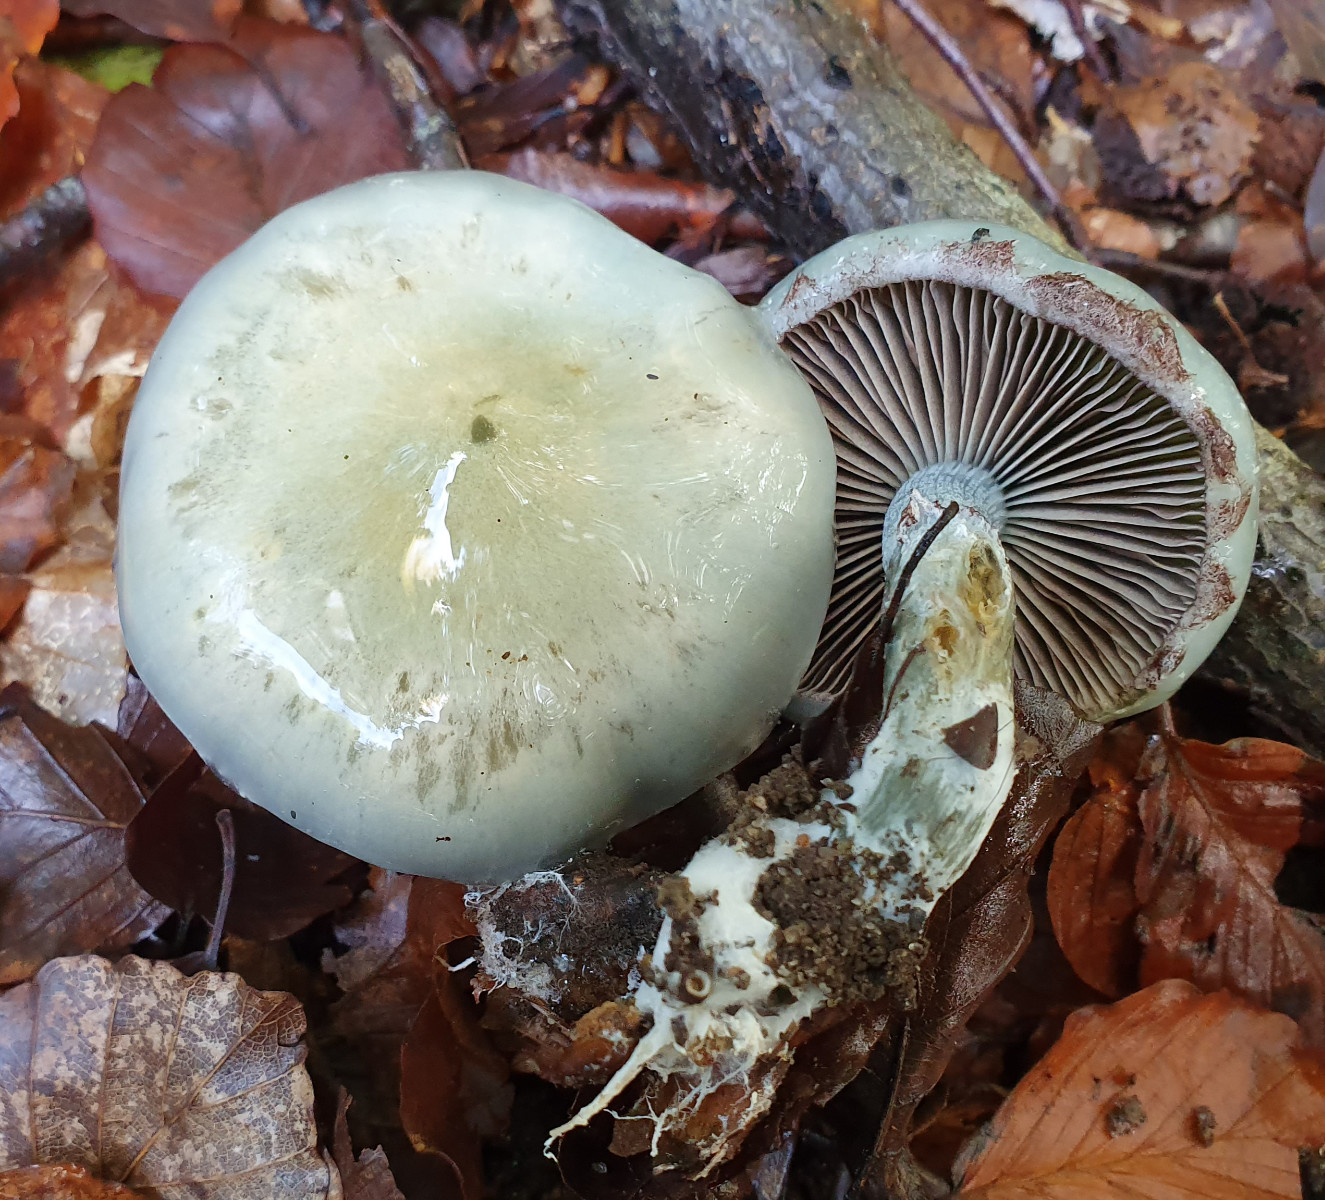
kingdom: Fungi
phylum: Basidiomycota
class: Agaricomycetes
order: Agaricales
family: Strophariaceae
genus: Stropharia
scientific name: Stropharia cyanea
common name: blågrøn bredblad
